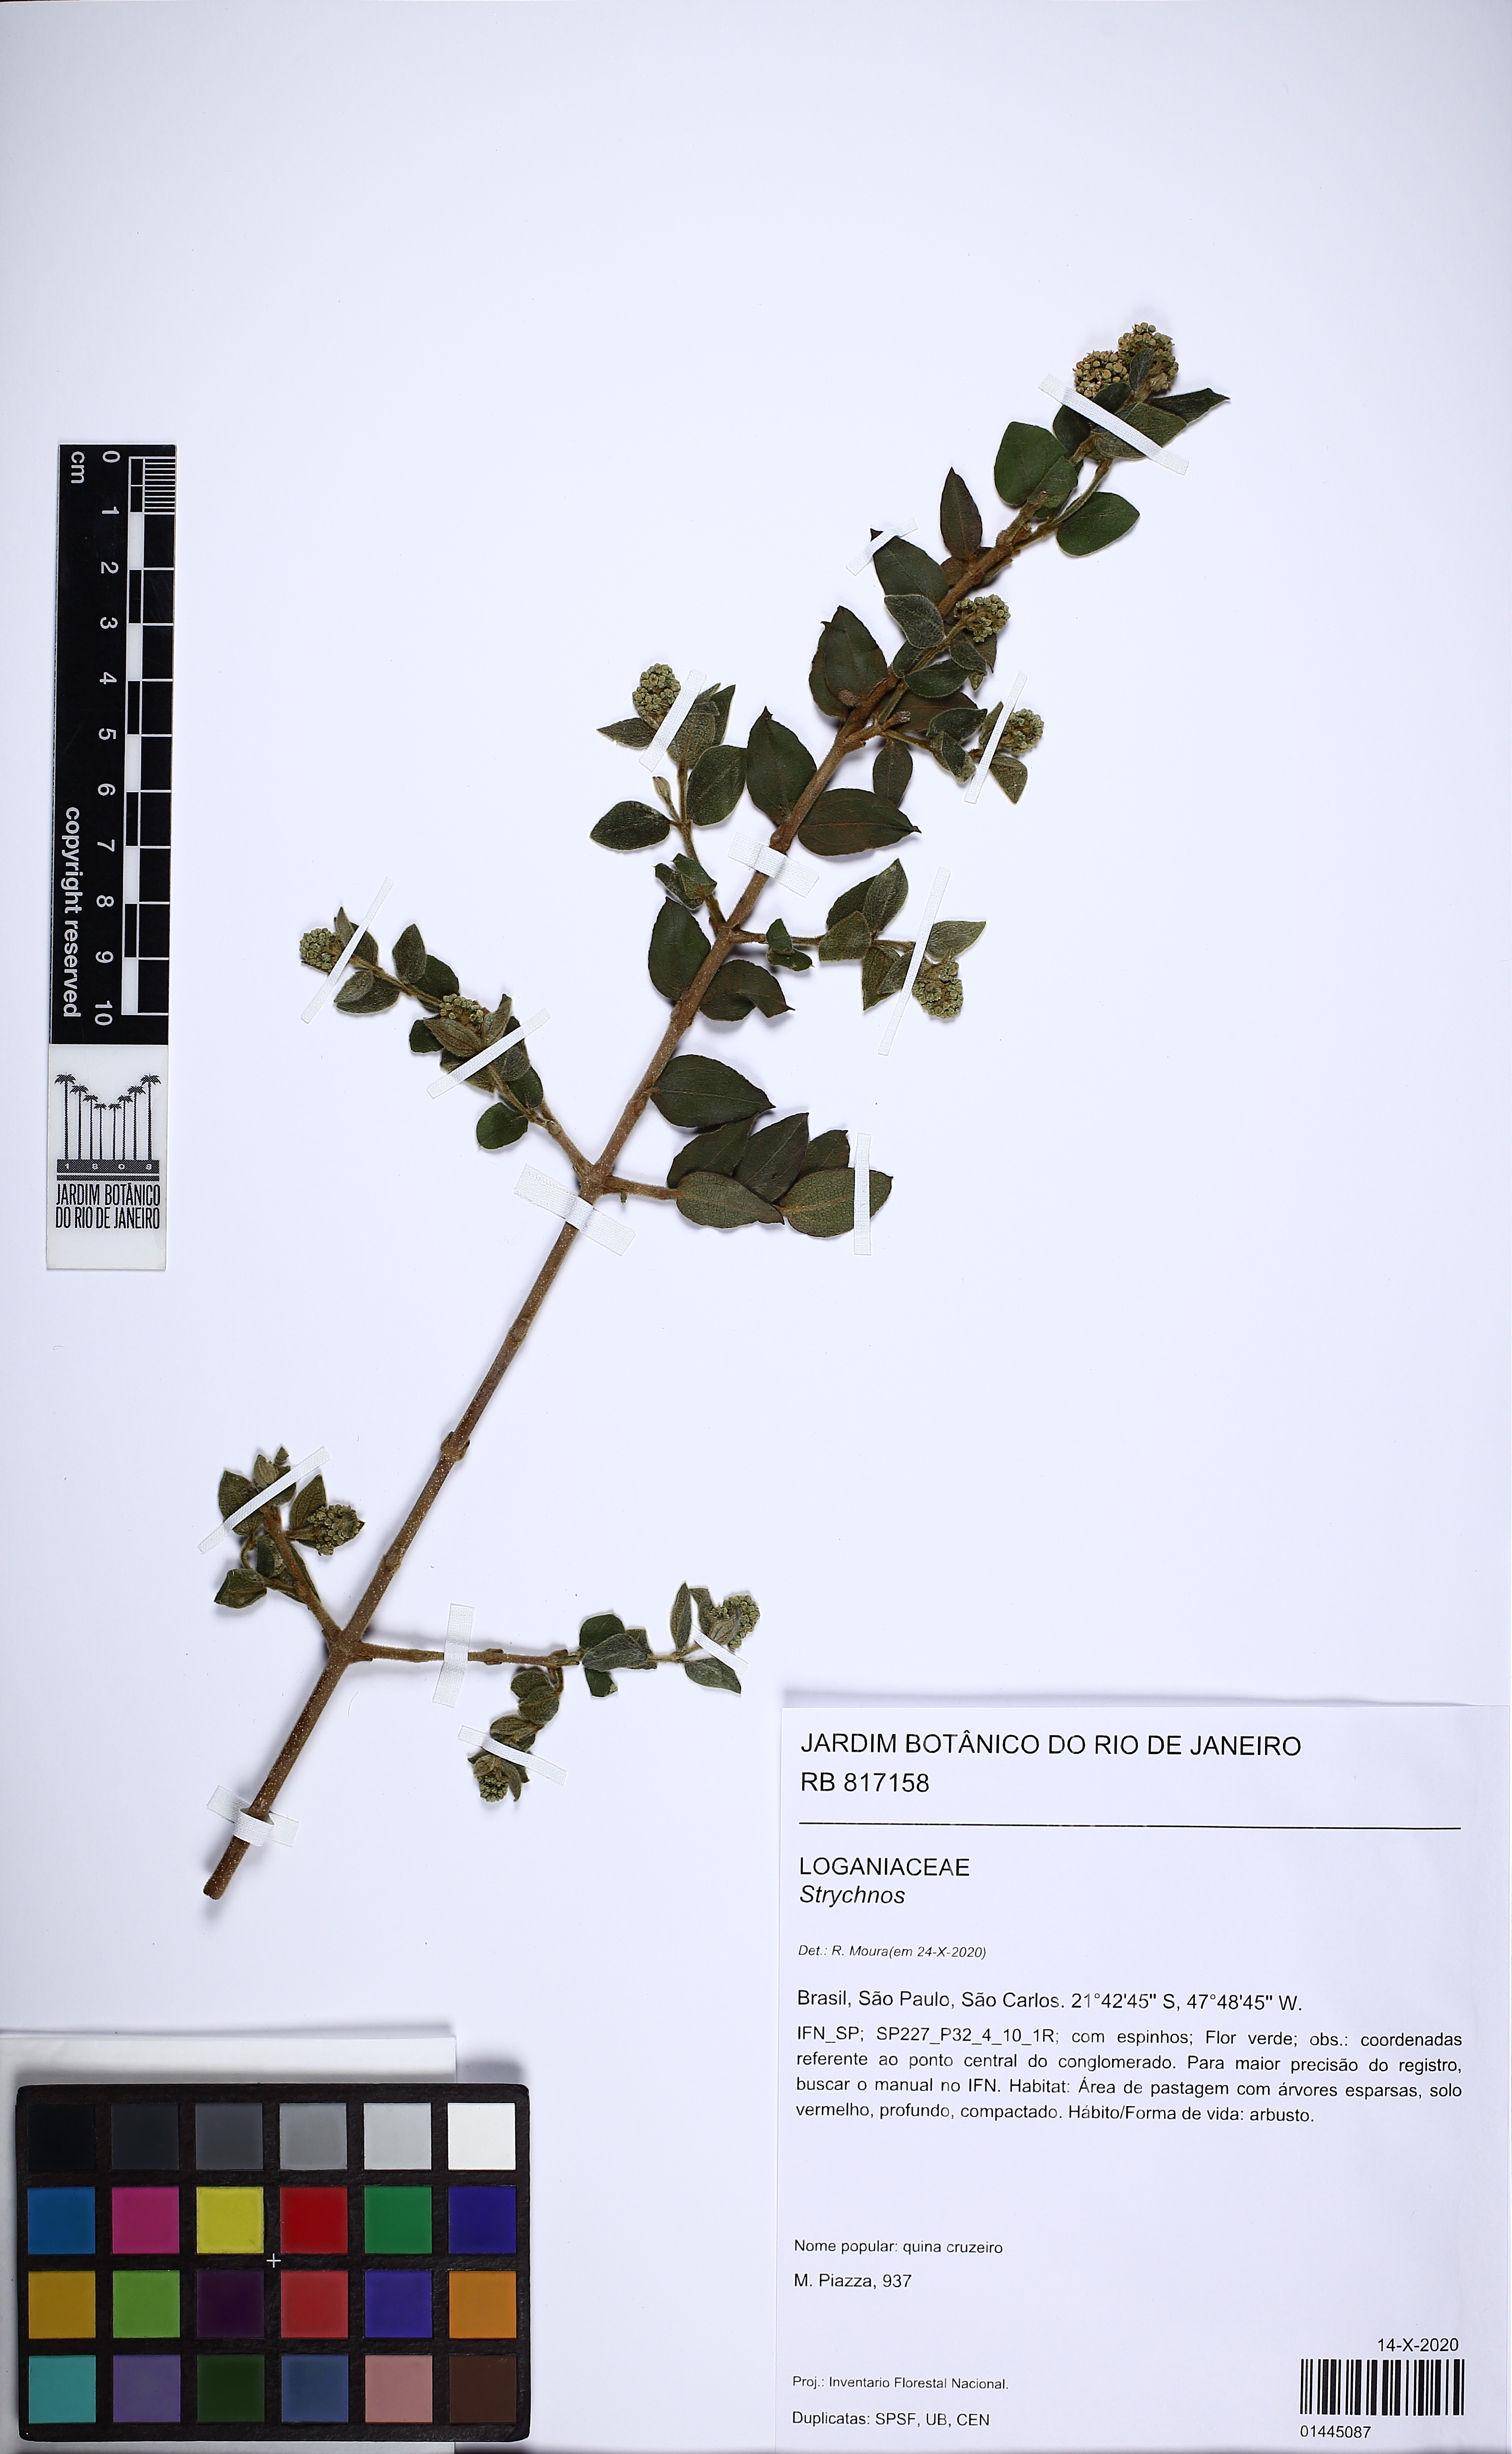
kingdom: Plantae
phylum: Tracheophyta
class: Magnoliopsida
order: Gentianales
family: Loganiaceae
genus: Strychnos
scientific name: Strychnos
